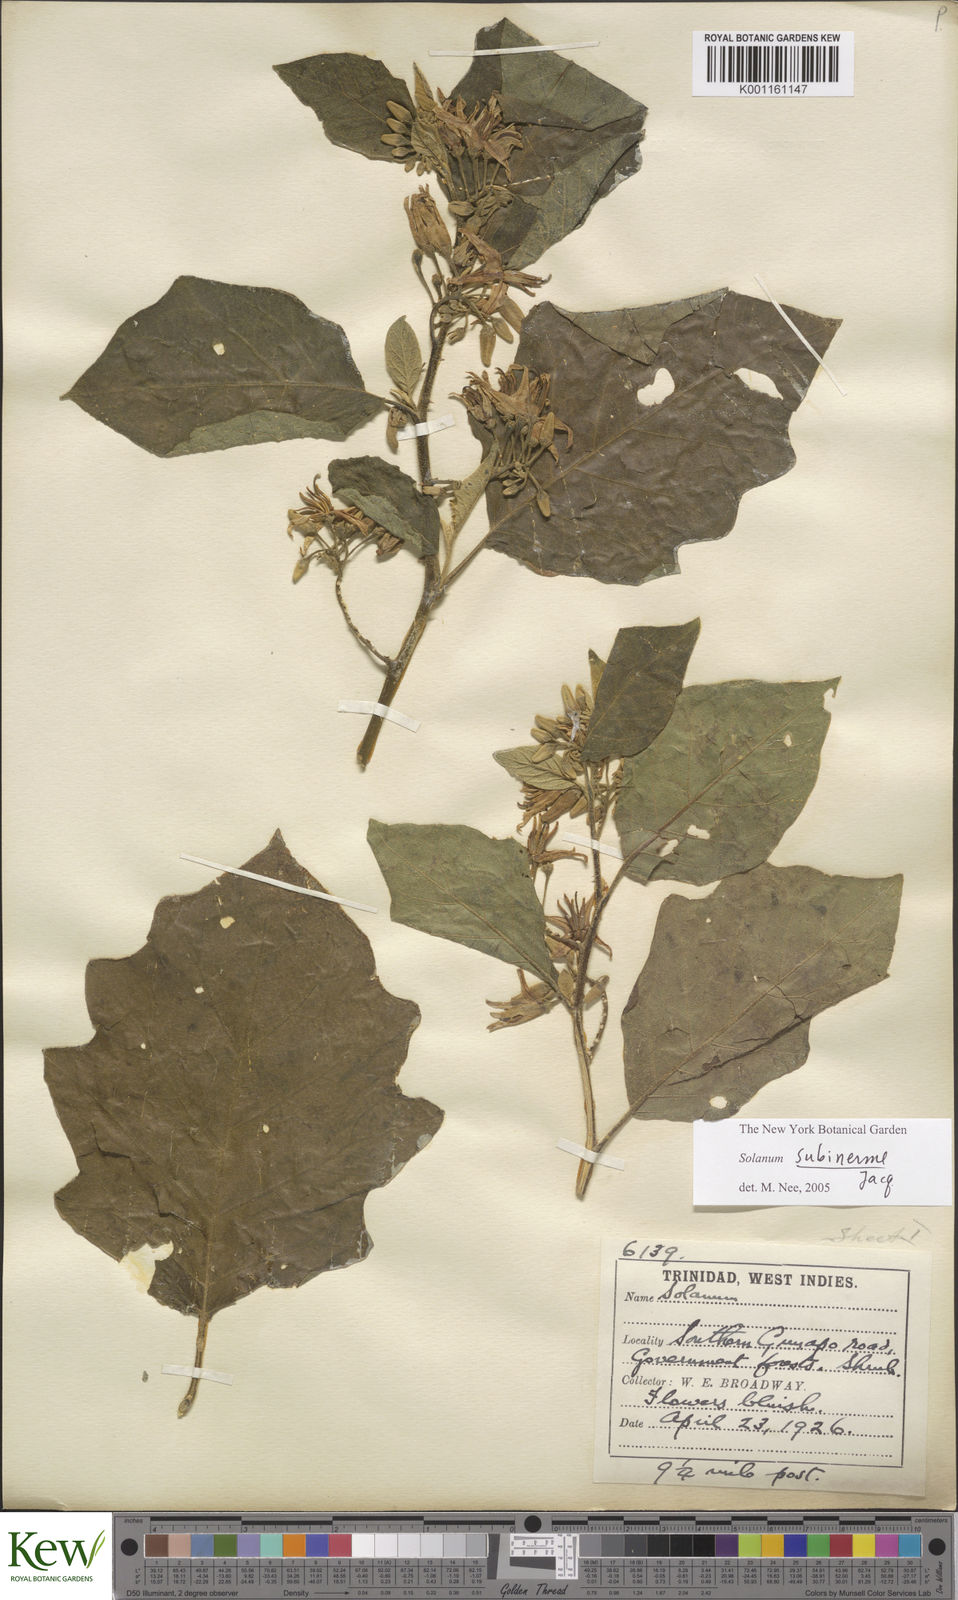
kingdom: Plantae
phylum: Tracheophyta
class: Magnoliopsida
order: Solanales
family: Solanaceae
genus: Solanum
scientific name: Solanum subinerme
